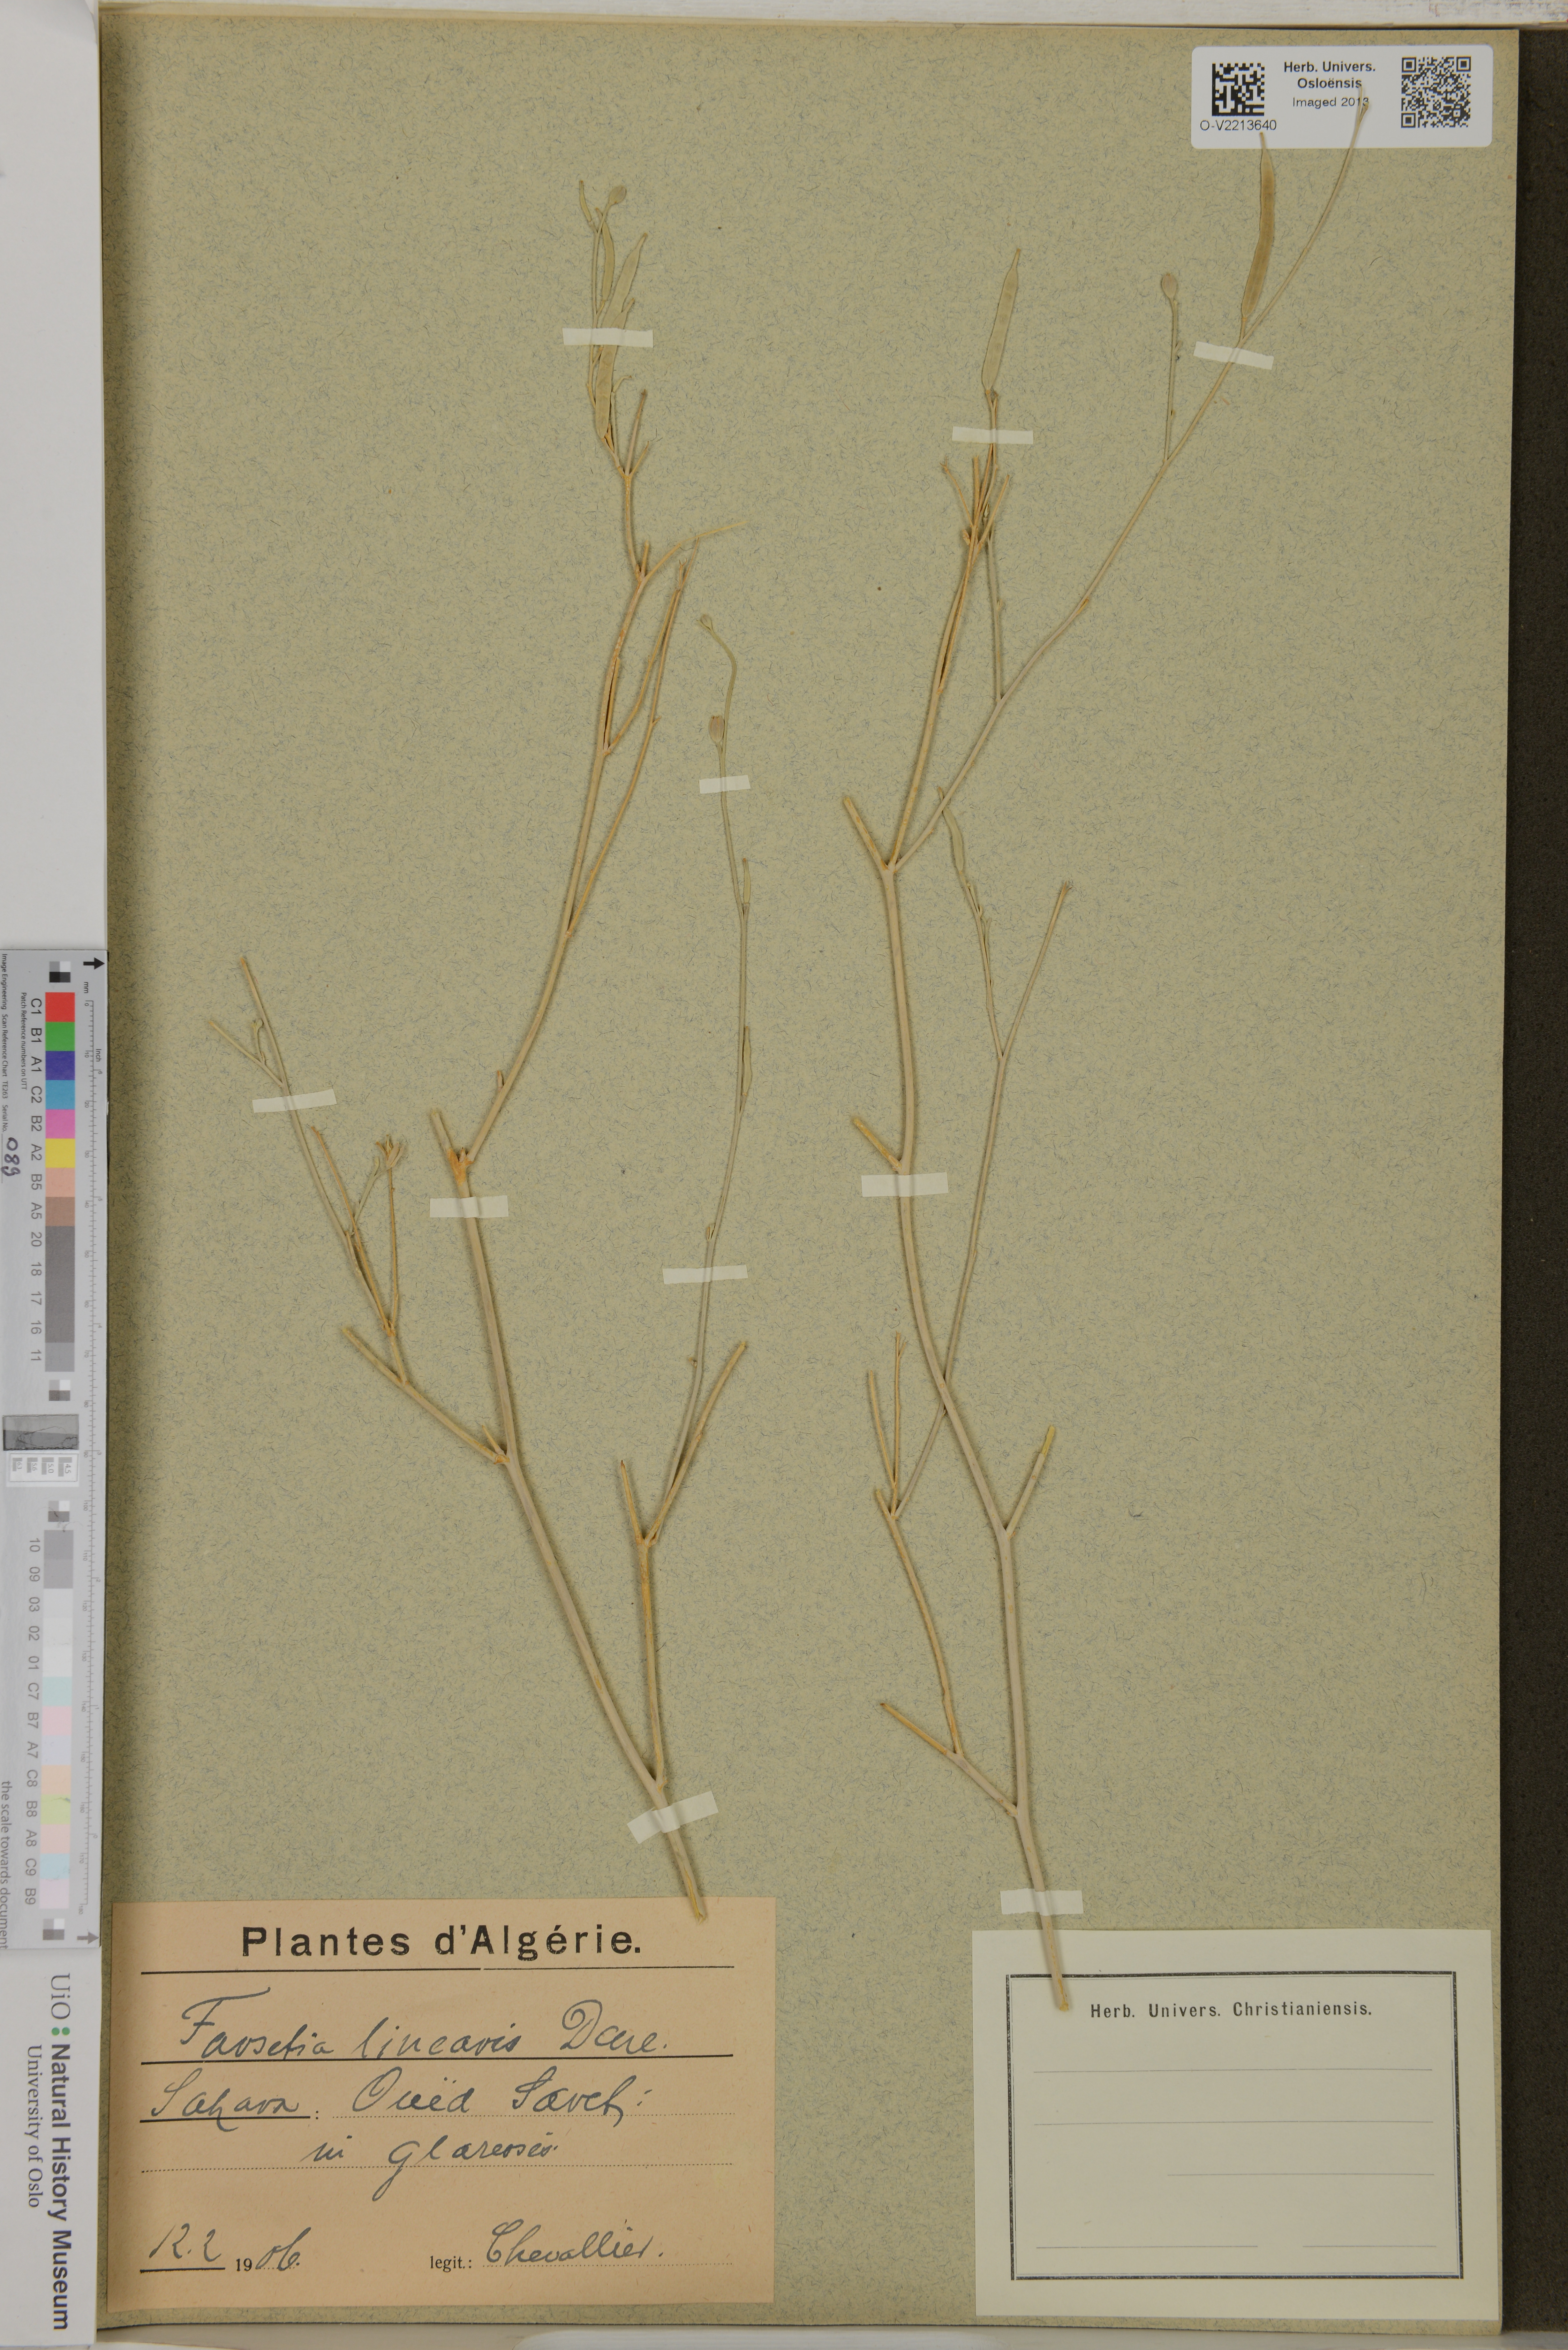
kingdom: Plantae
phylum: Tracheophyta
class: Magnoliopsida
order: Brassicales
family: Brassicaceae
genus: Farsetia
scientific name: Farsetia linearis
